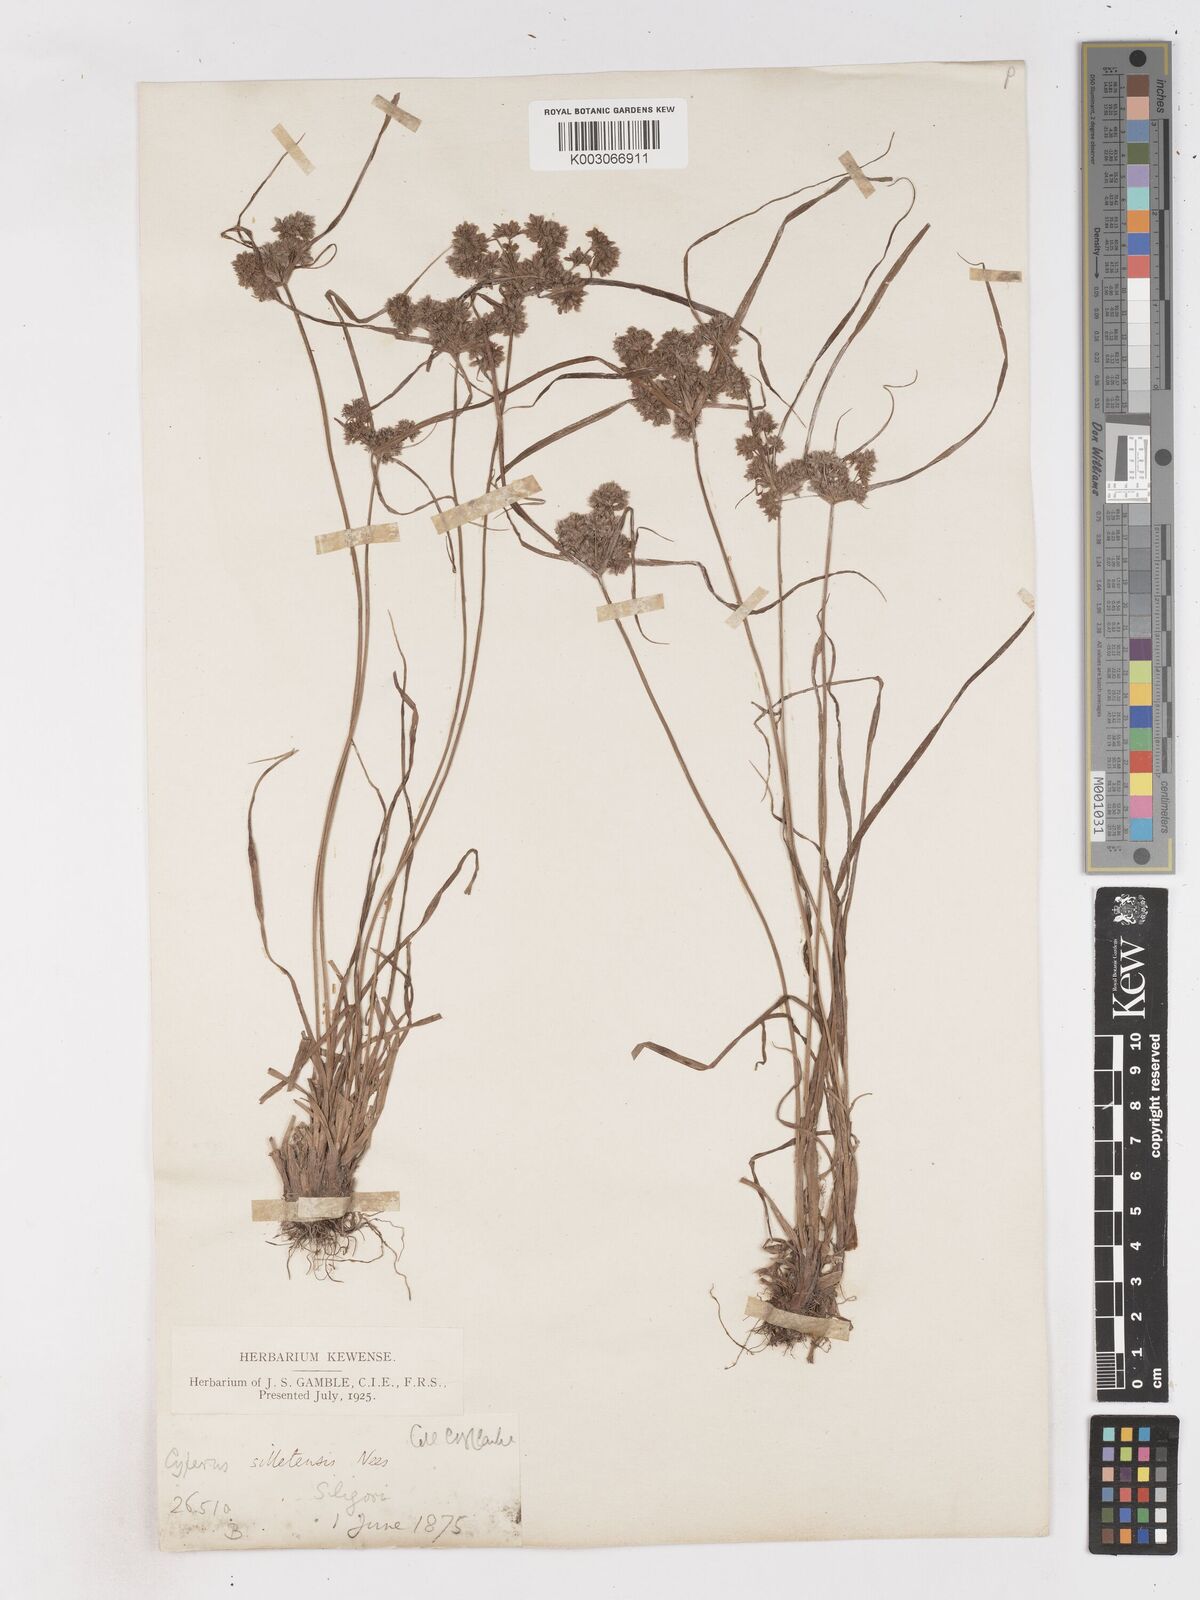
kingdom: Plantae
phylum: Tracheophyta
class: Liliopsida
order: Poales
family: Cyperaceae
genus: Cyperus
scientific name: Cyperus silletensis
